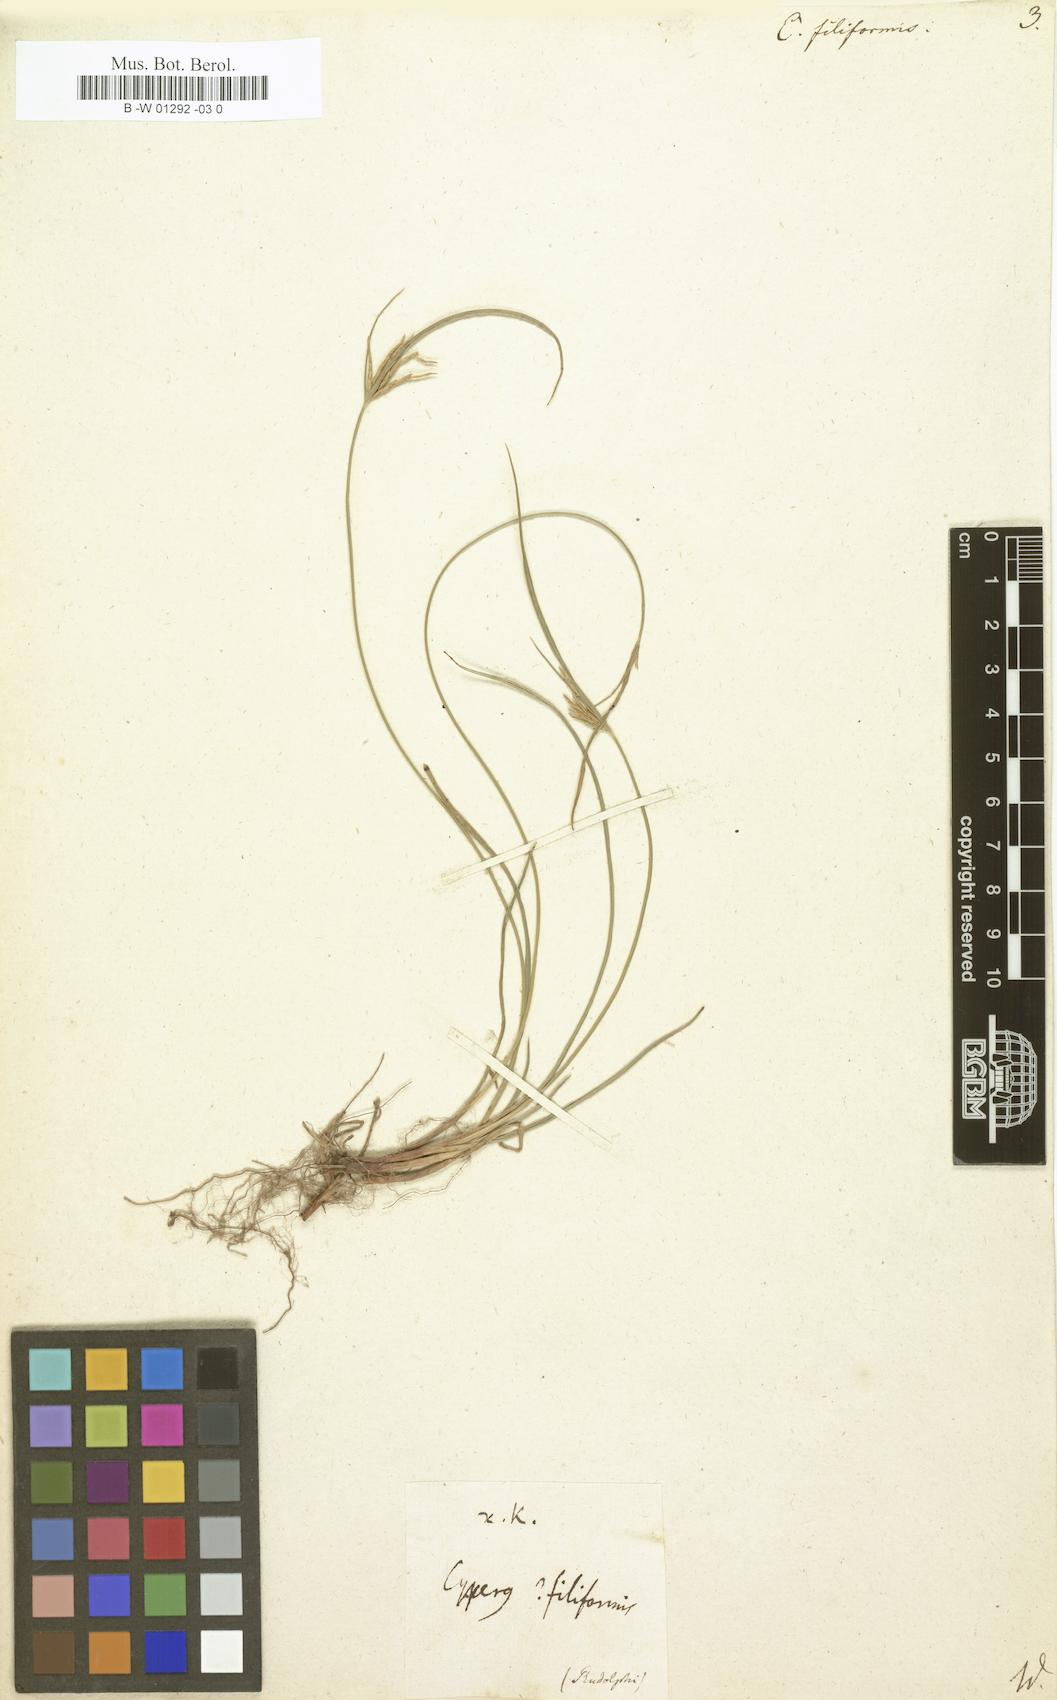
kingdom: Plantae
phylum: Tracheophyta
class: Liliopsida
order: Poales
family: Cyperaceae
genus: Cyperus
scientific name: Cyperus filiformis
